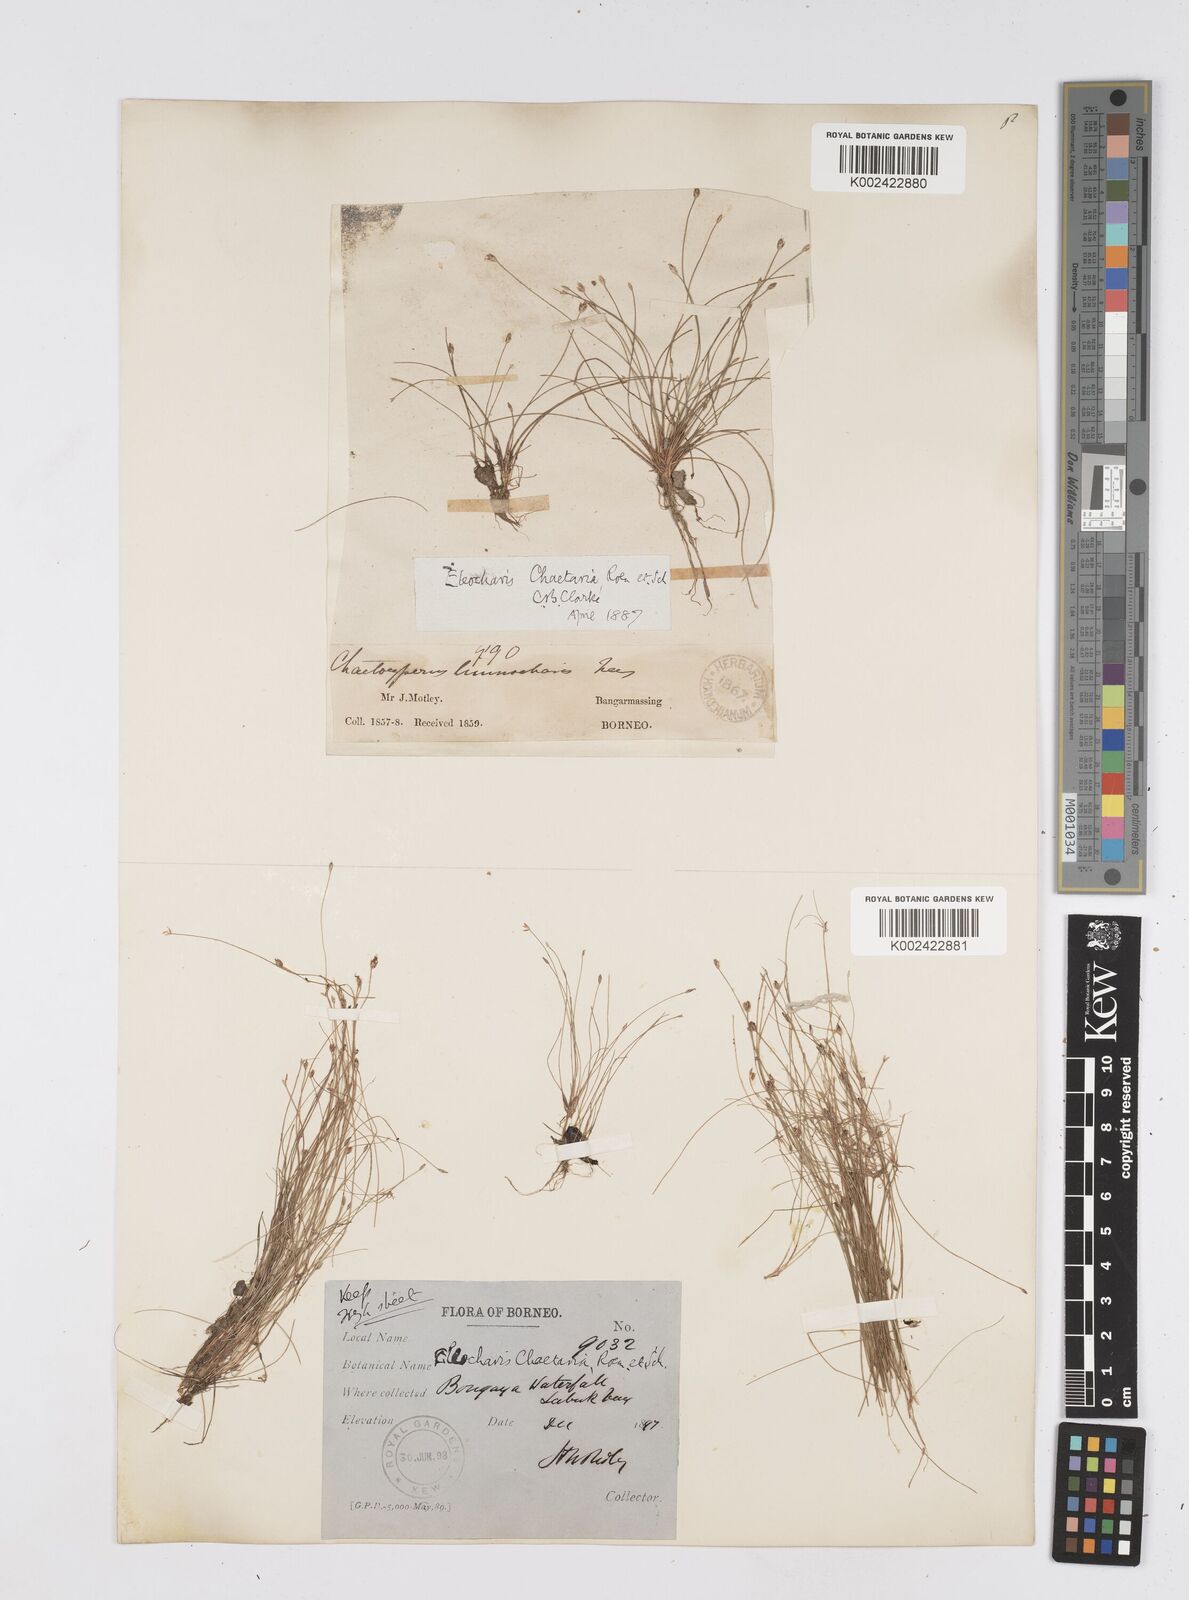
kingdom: Plantae
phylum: Tracheophyta
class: Liliopsida
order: Poales
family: Cyperaceae
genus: Eleocharis
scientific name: Eleocharis retroflexa
